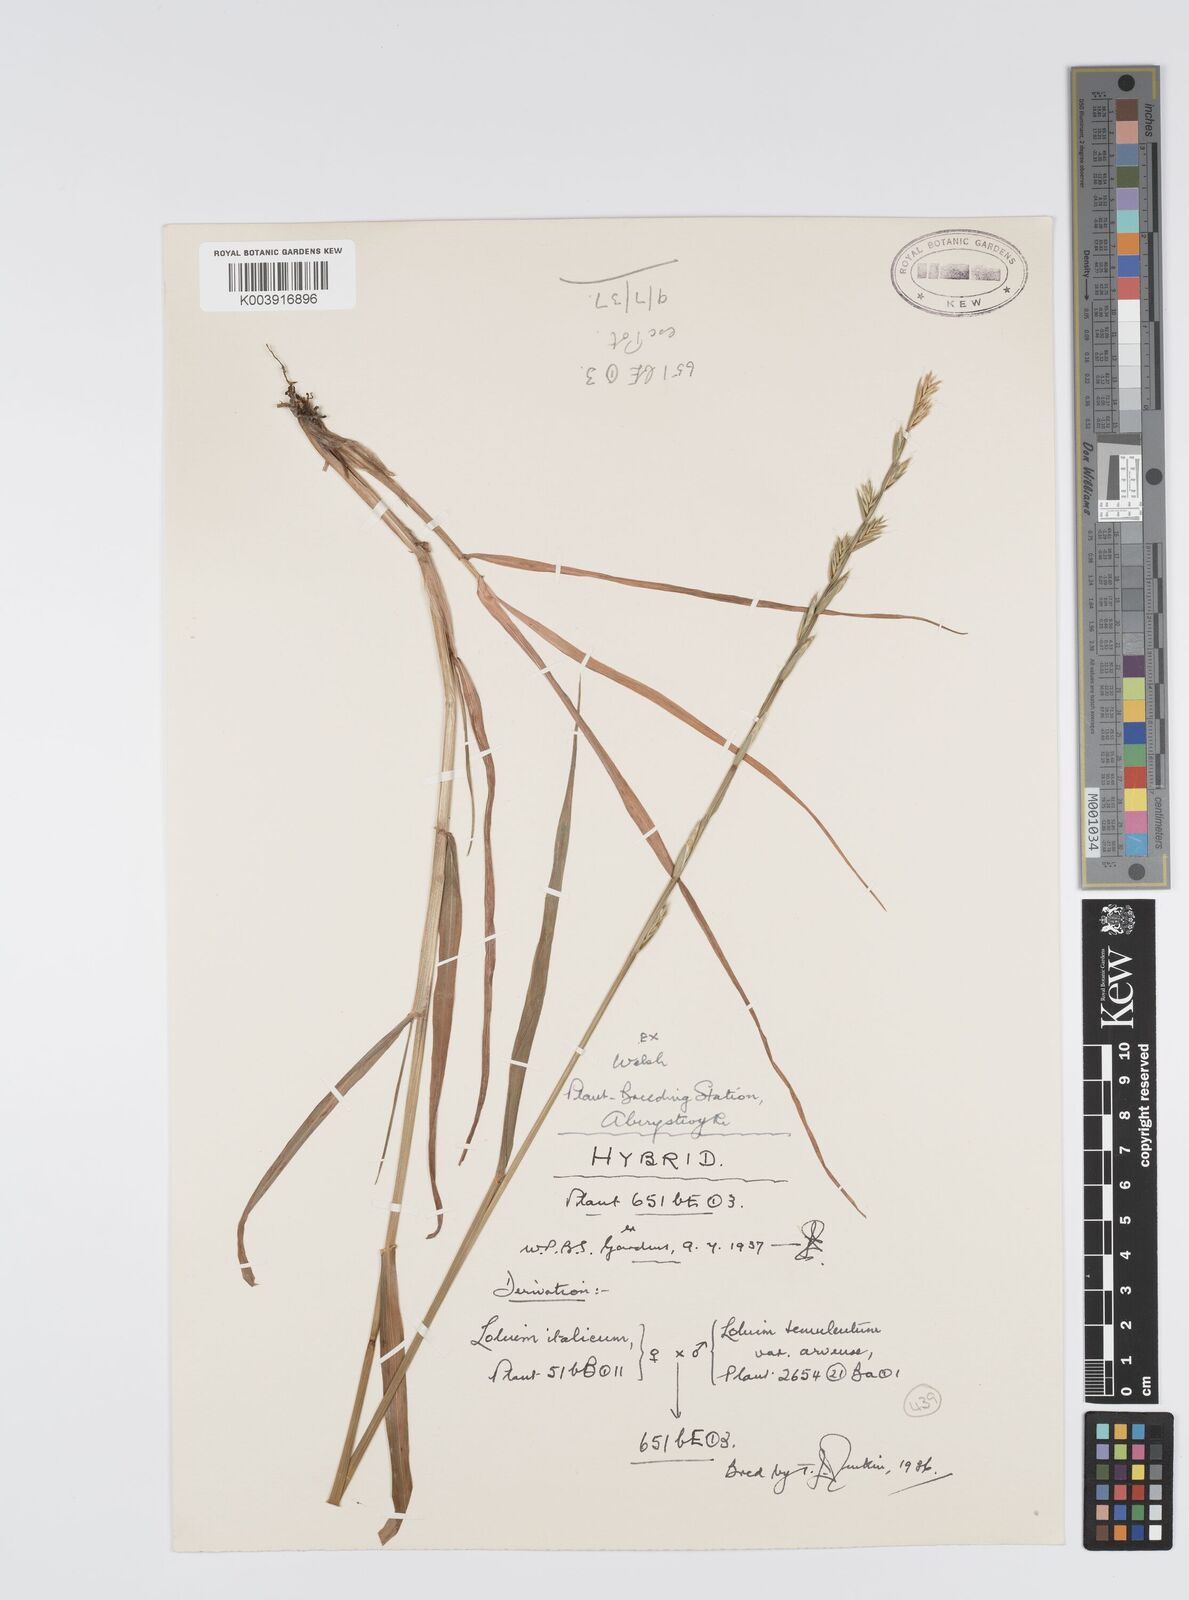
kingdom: Plantae
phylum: Tracheophyta
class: Liliopsida
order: Poales
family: Poaceae
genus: Lolium
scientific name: Lolium multiflorum
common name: Annual ryegrass
